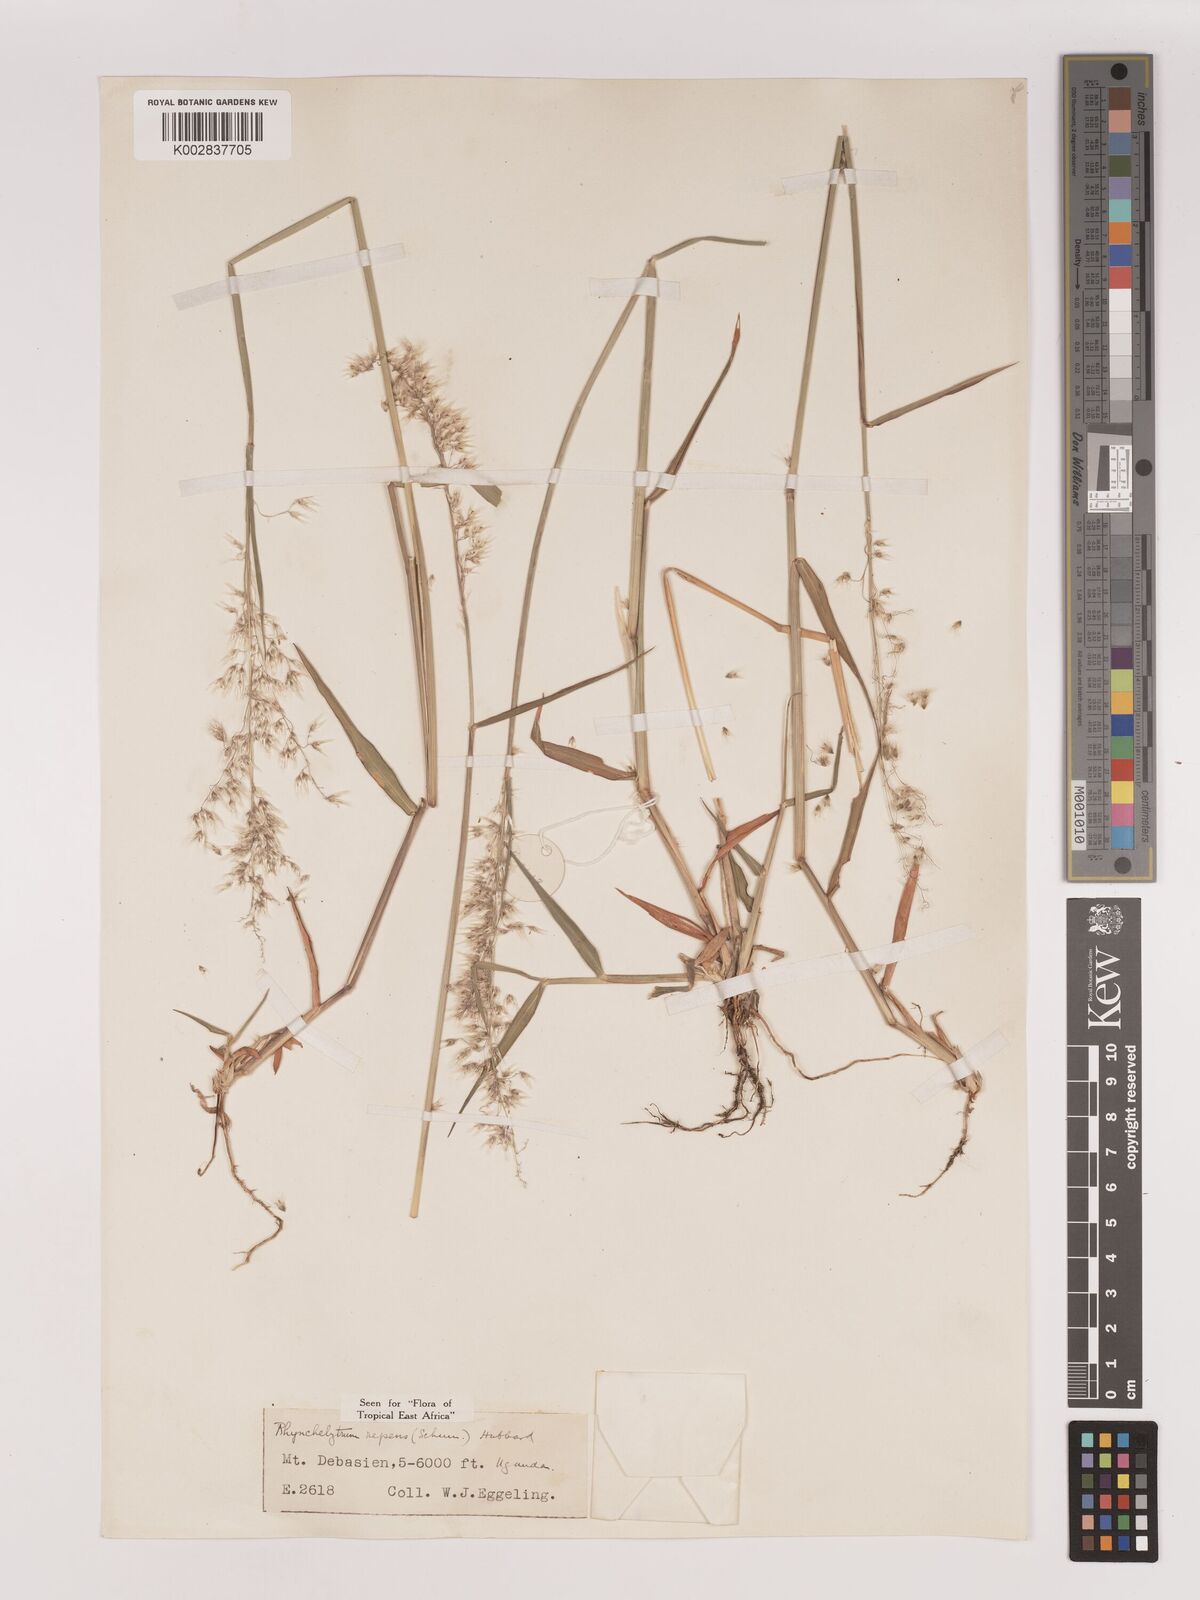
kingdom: Plantae
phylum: Tracheophyta
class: Liliopsida
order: Poales
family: Poaceae
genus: Melinis
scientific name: Melinis repens
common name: Rose natal grass
